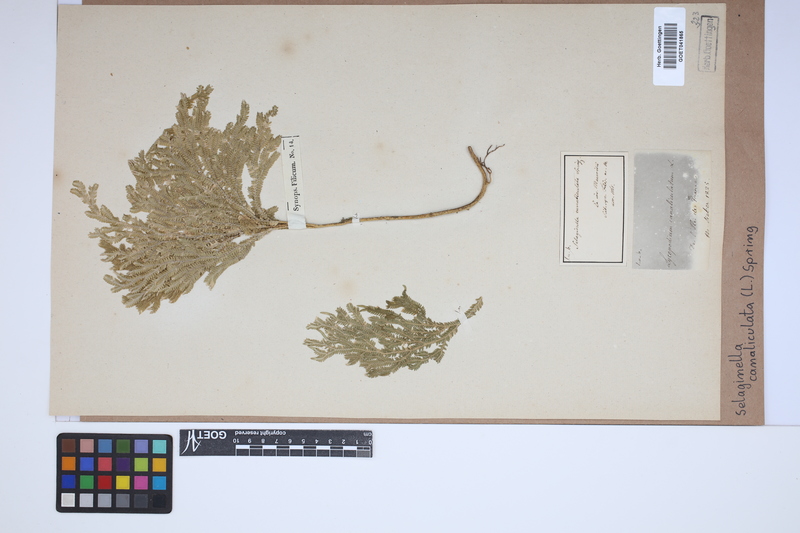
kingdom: Plantae
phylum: Tracheophyta
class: Lycopodiopsida
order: Selaginellales
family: Selaginellaceae
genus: Selaginella
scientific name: Selaginella canaliculata
